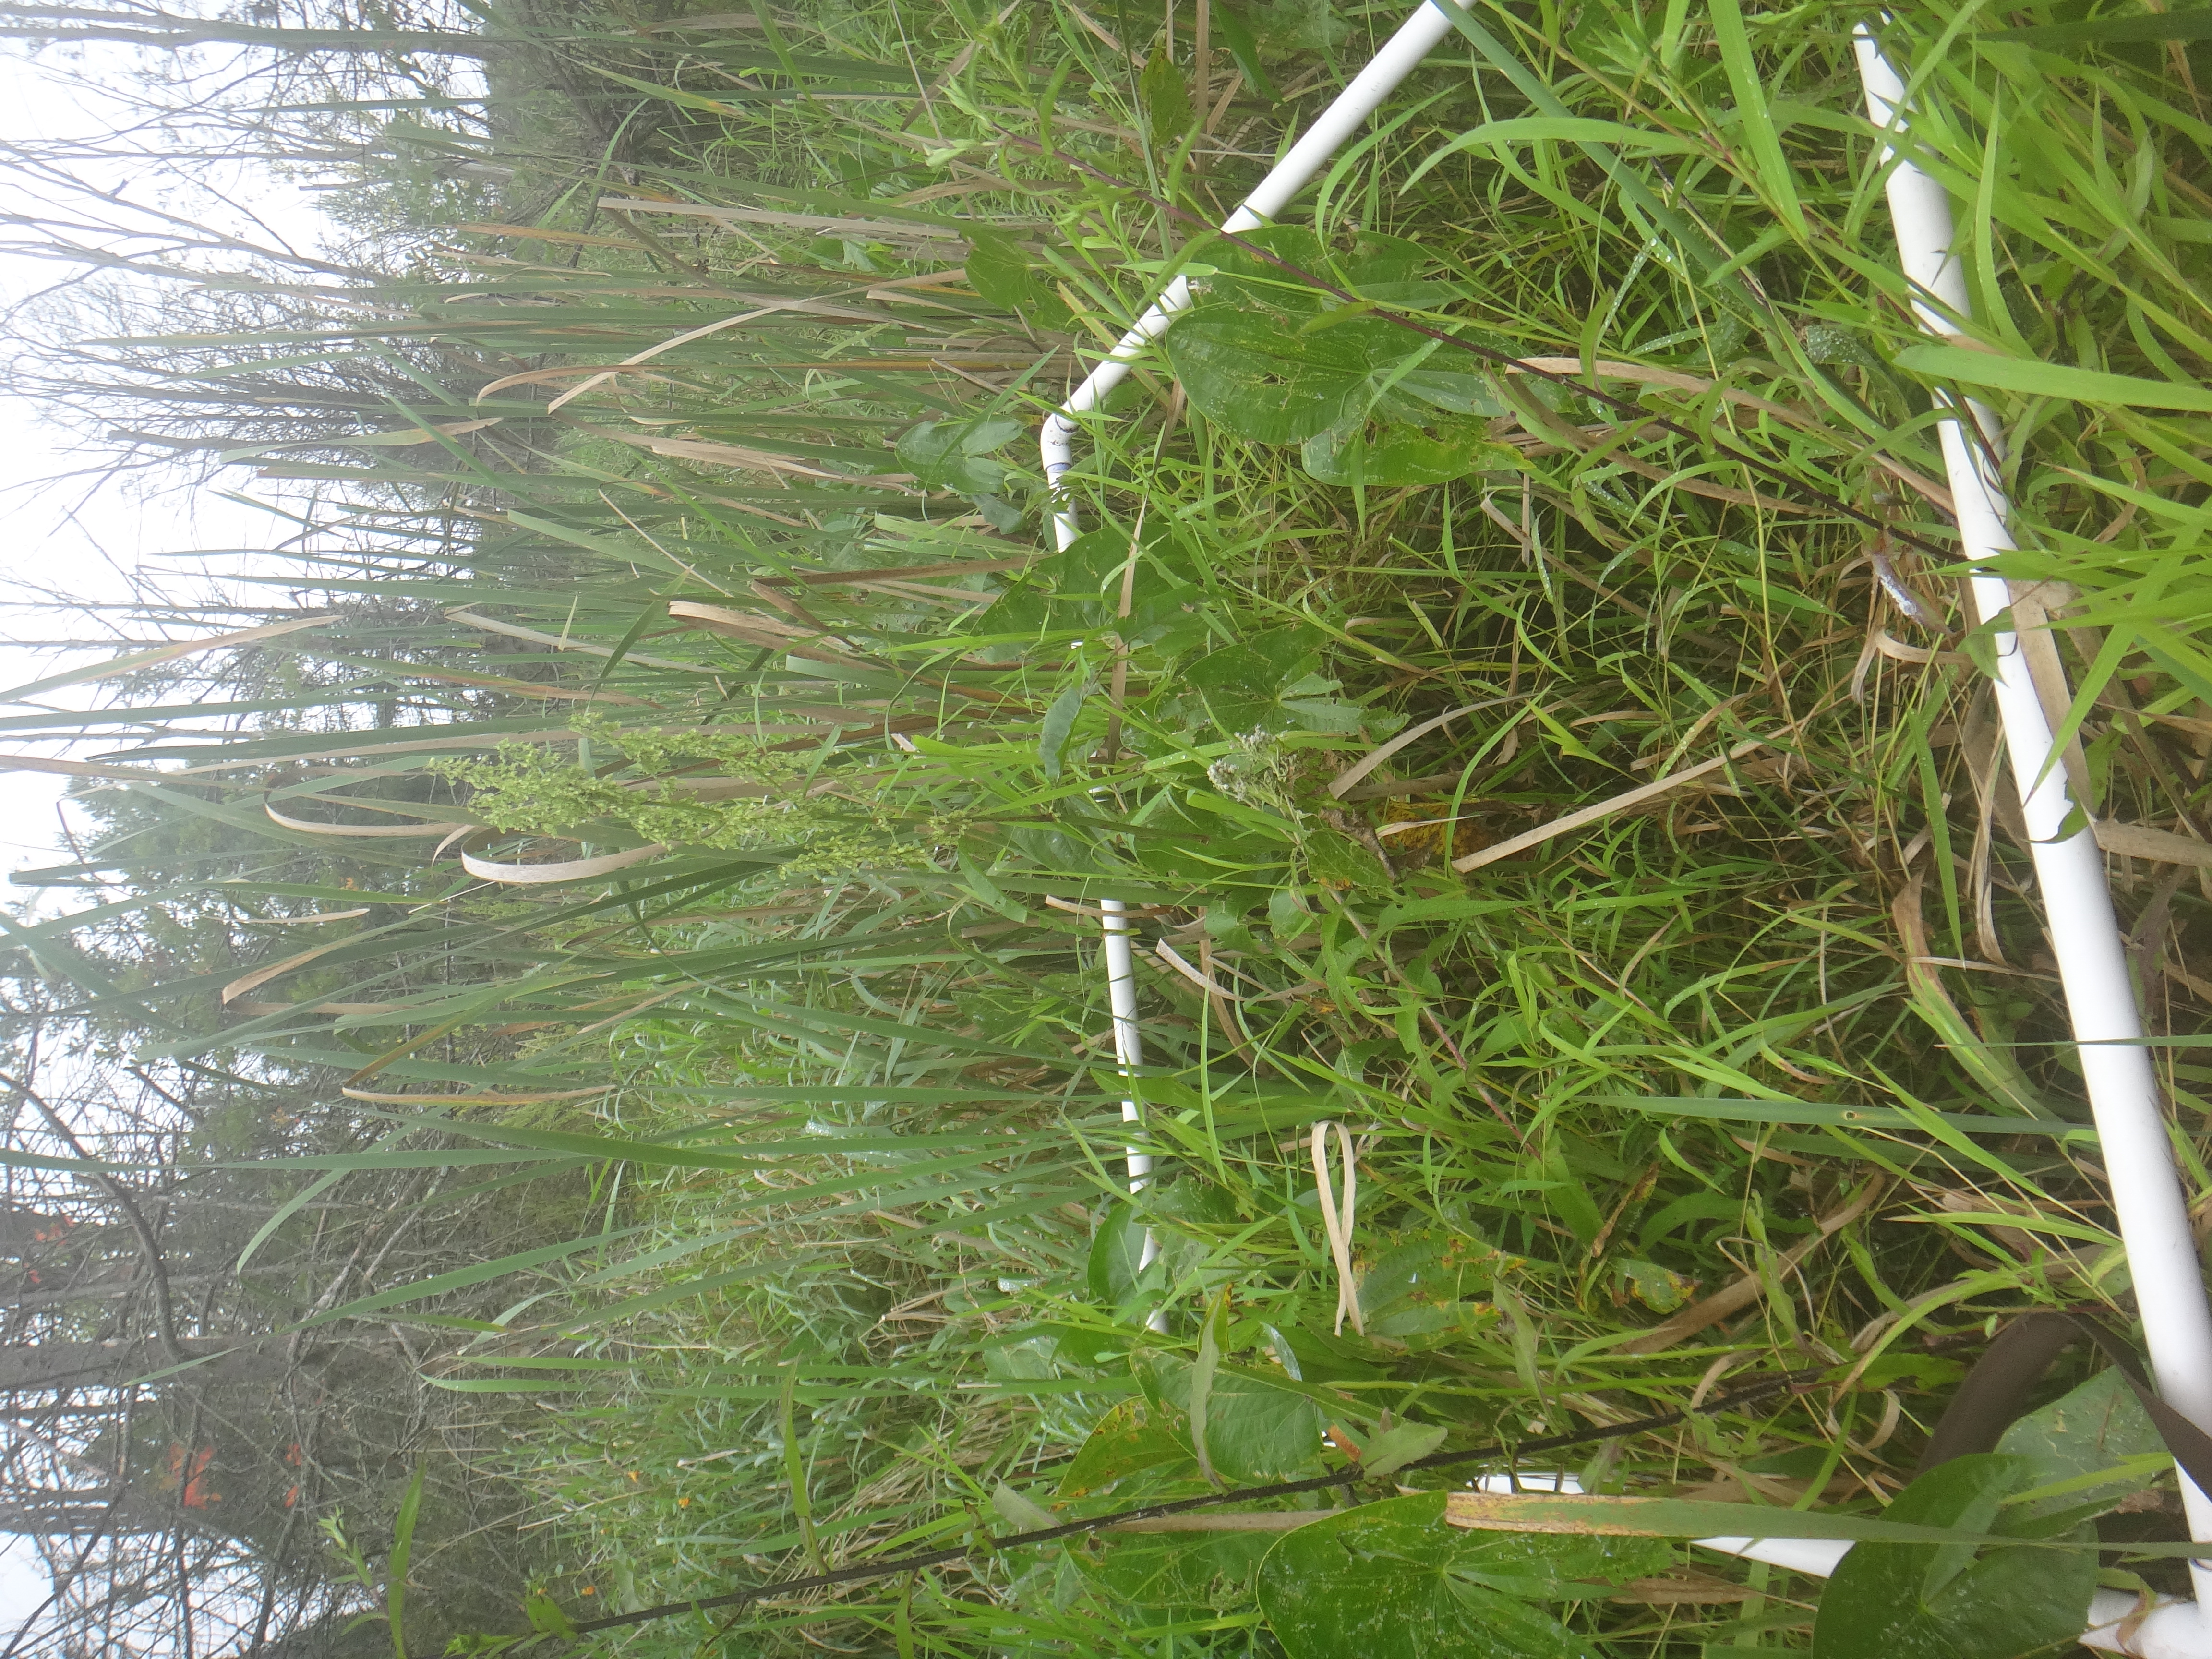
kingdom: Plantae
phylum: Tracheophyta
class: Liliopsida
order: Poales
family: Cyperaceae
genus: Eleocharis
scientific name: Eleocharis erythropoda
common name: Bald spikerush
